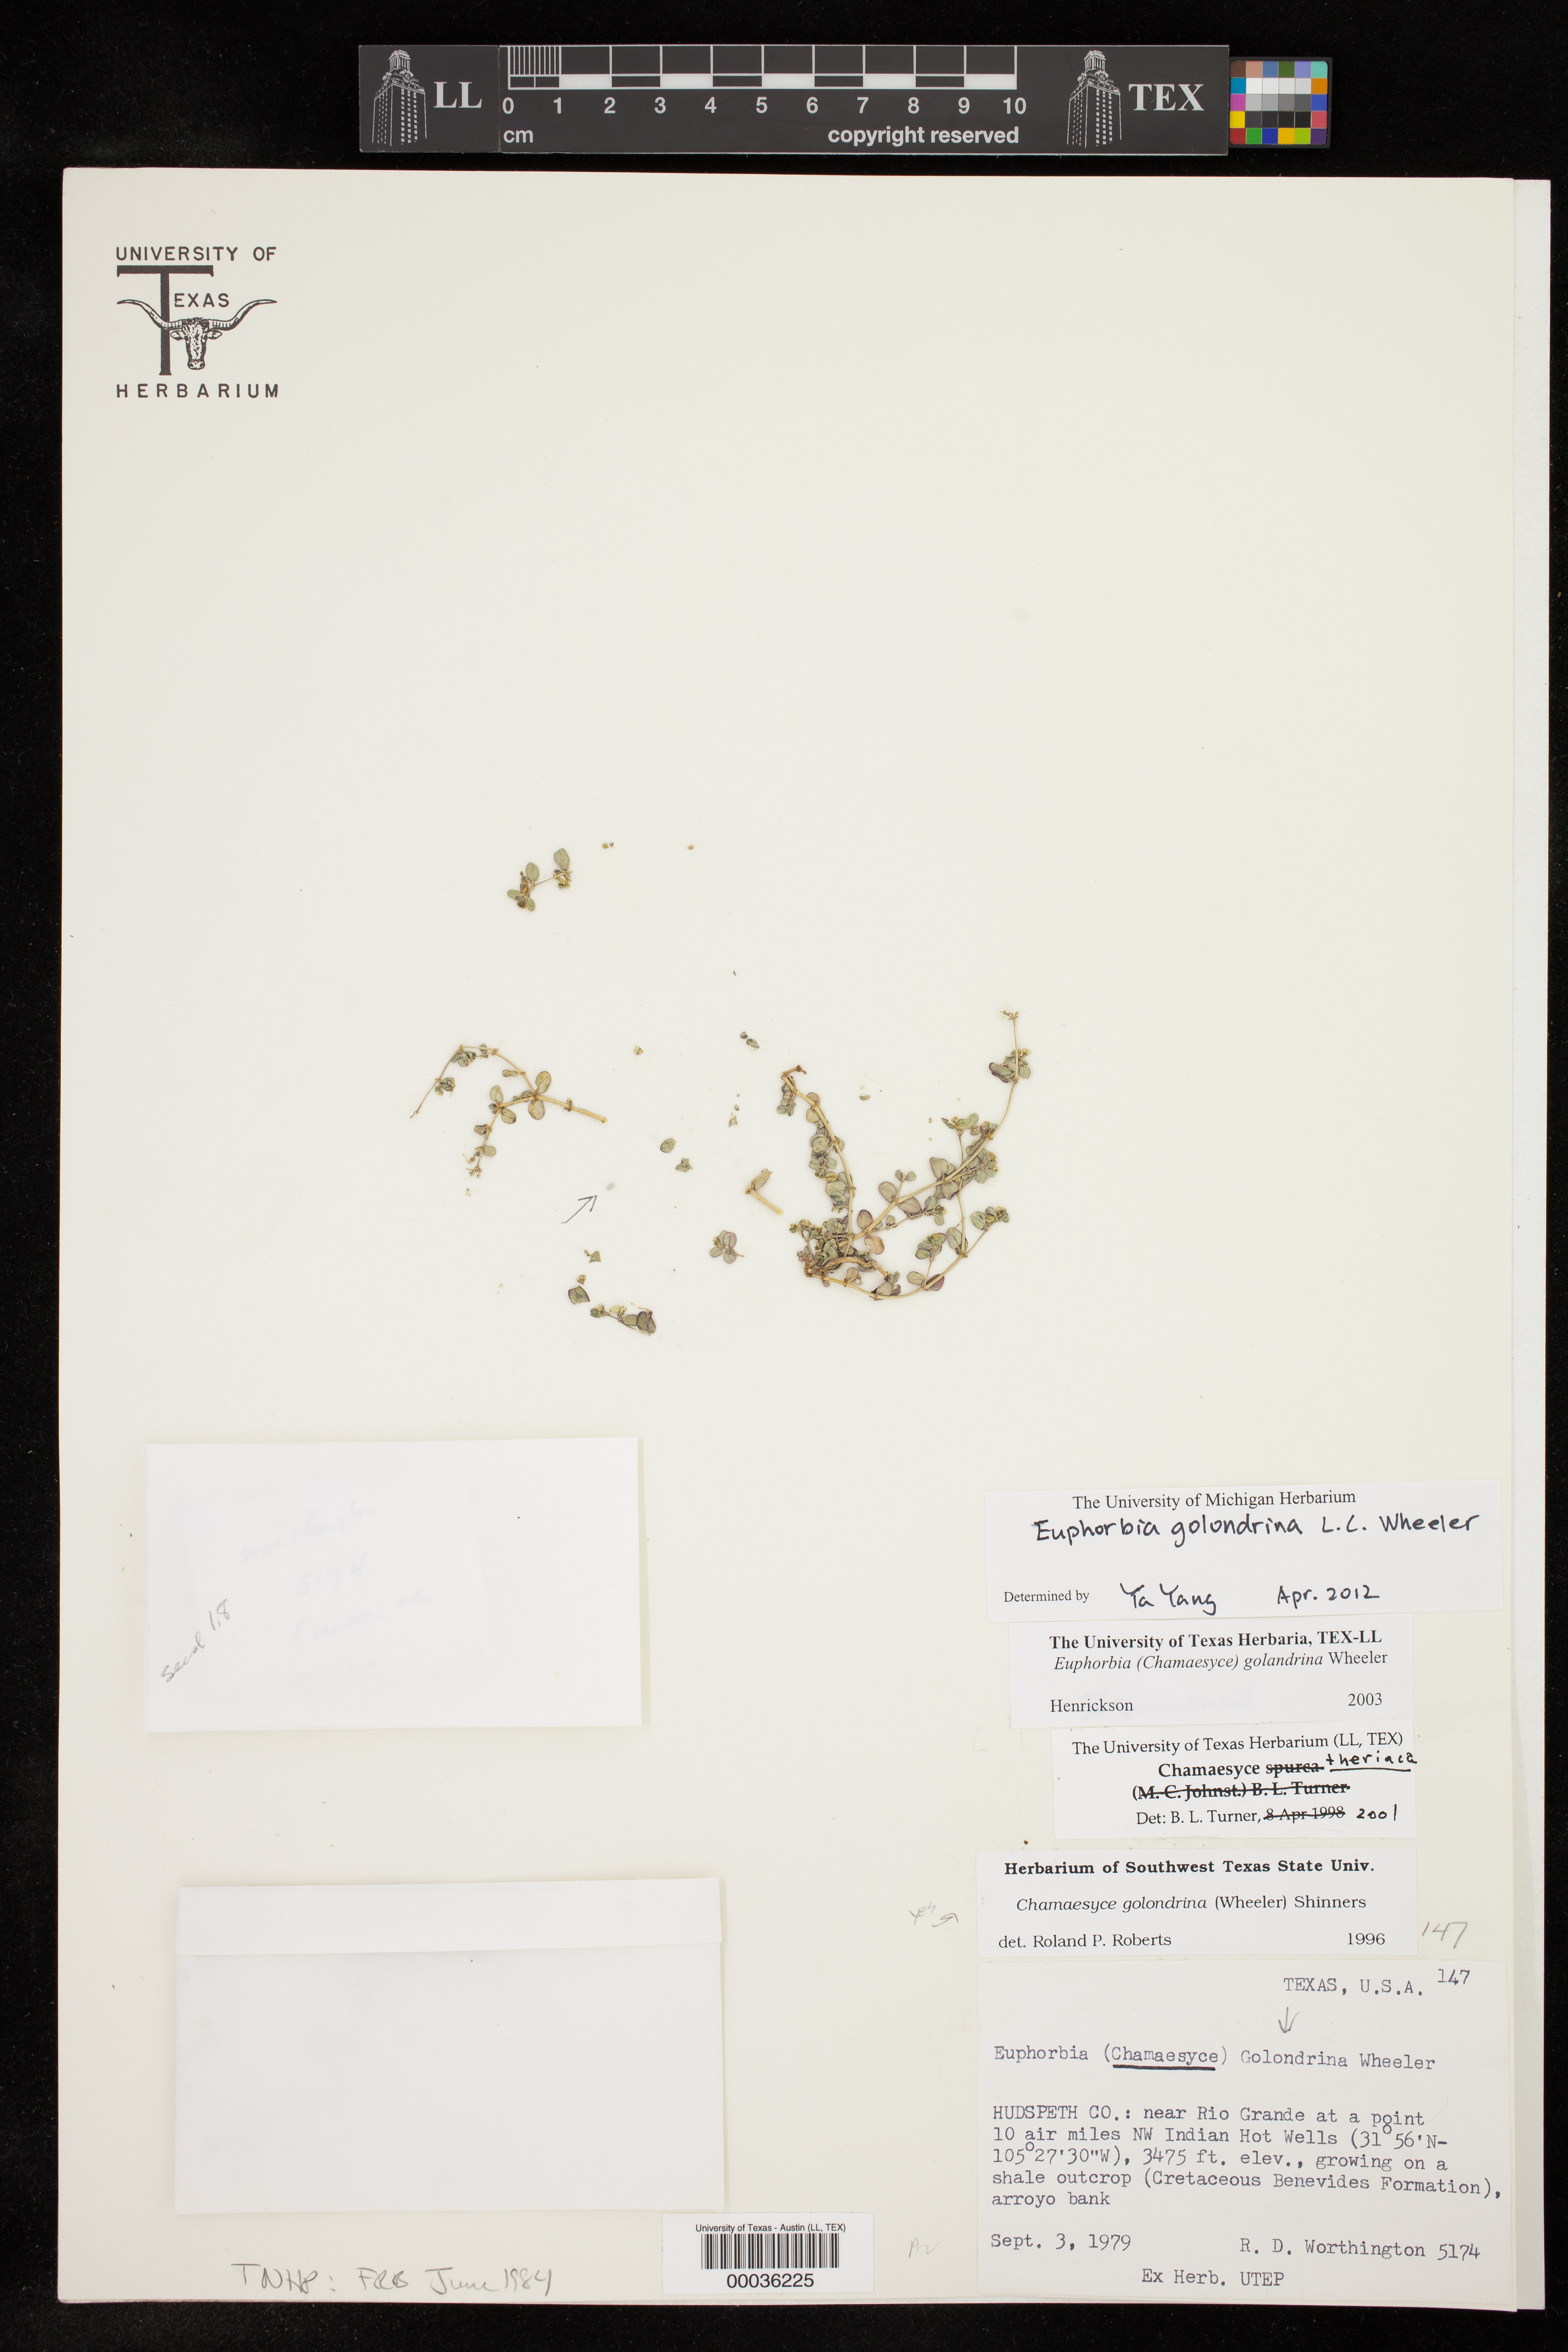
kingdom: Plantae
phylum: Tracheophyta
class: Magnoliopsida
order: Malpighiales
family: Euphorbiaceae
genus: Euphorbia
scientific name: Euphorbia golondrina
